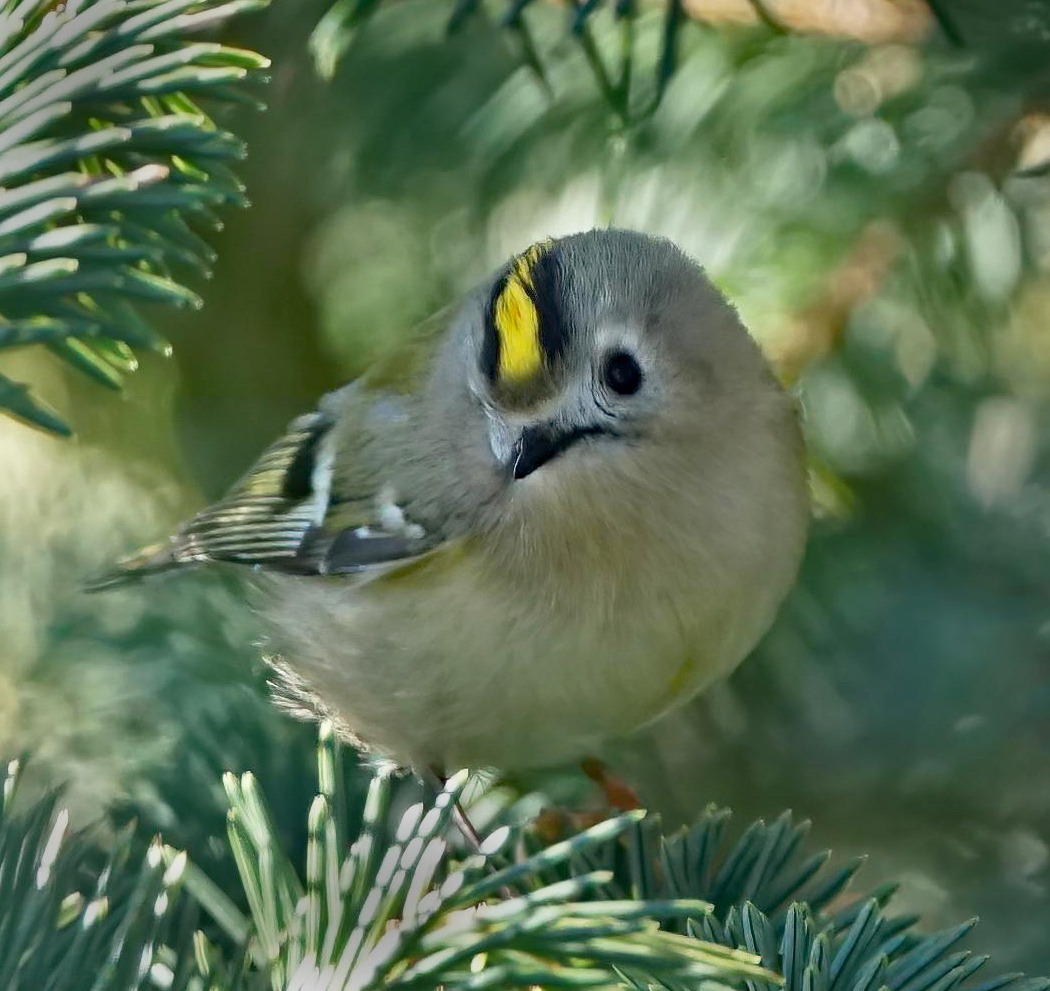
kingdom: Animalia
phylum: Chordata
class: Aves
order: Passeriformes
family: Regulidae
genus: Regulus
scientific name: Regulus regulus
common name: Fuglekonge
